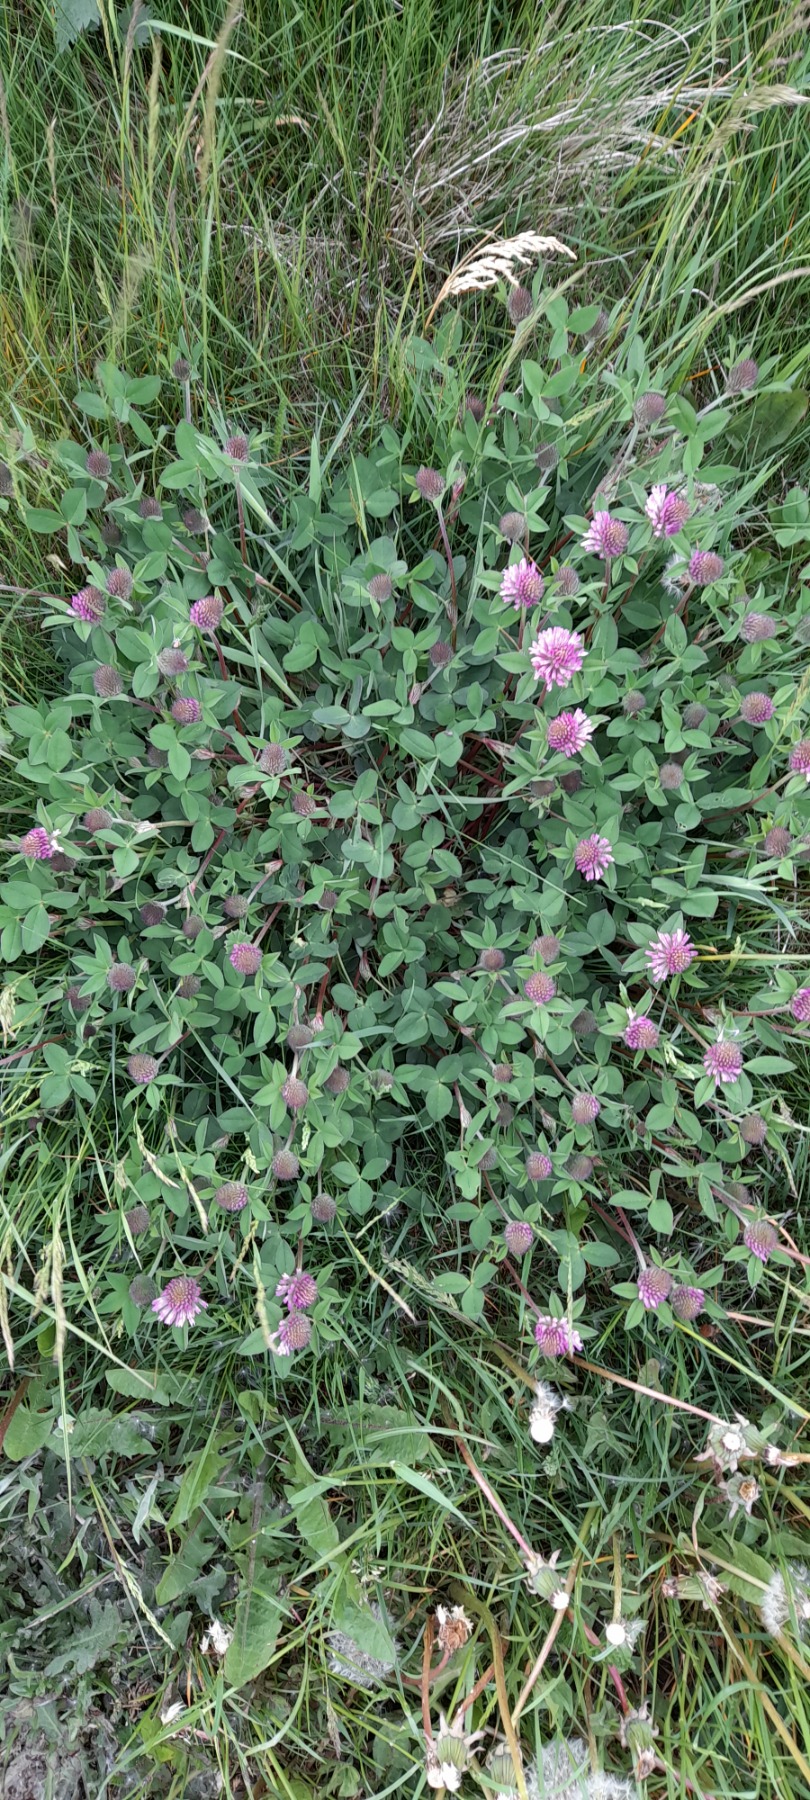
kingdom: Plantae
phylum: Tracheophyta
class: Magnoliopsida
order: Fabales
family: Fabaceae
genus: Trifolium
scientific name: Trifolium pratense
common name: Rød-kløver
